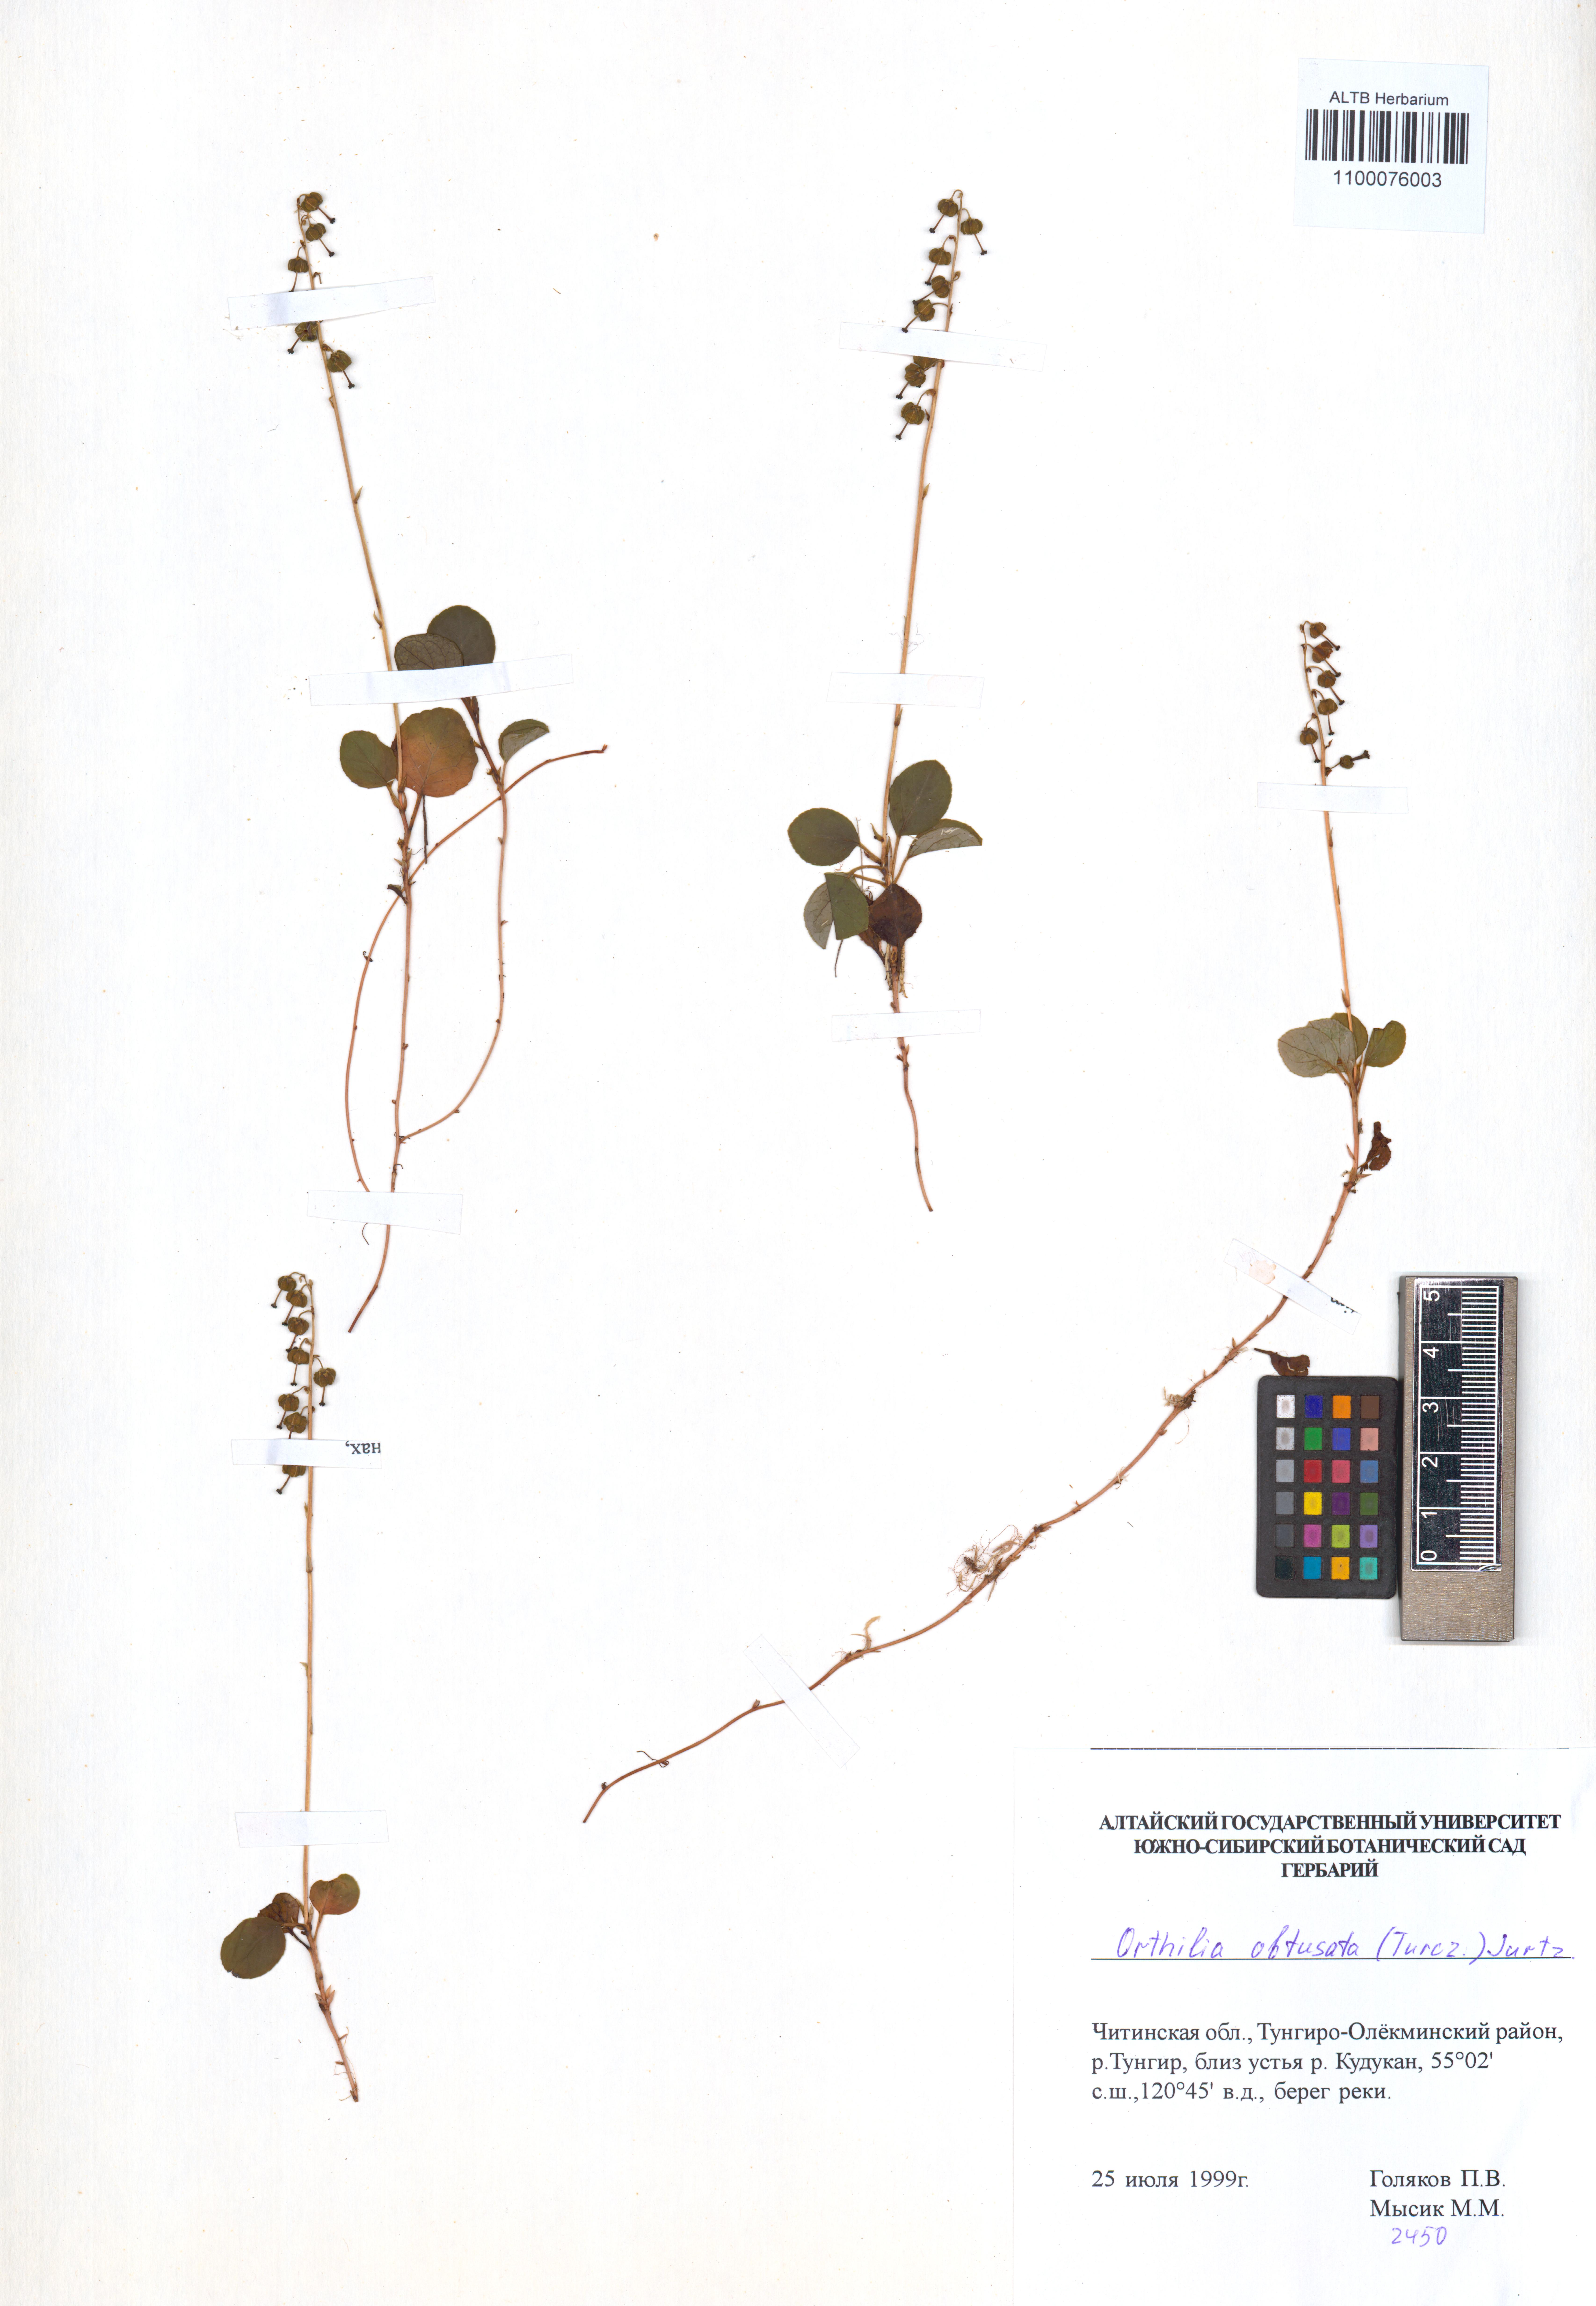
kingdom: Plantae
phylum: Tracheophyta
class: Magnoliopsida
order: Ericales
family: Ericaceae
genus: Orthilia
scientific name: Orthilia secunda
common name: One-sided orthilia
